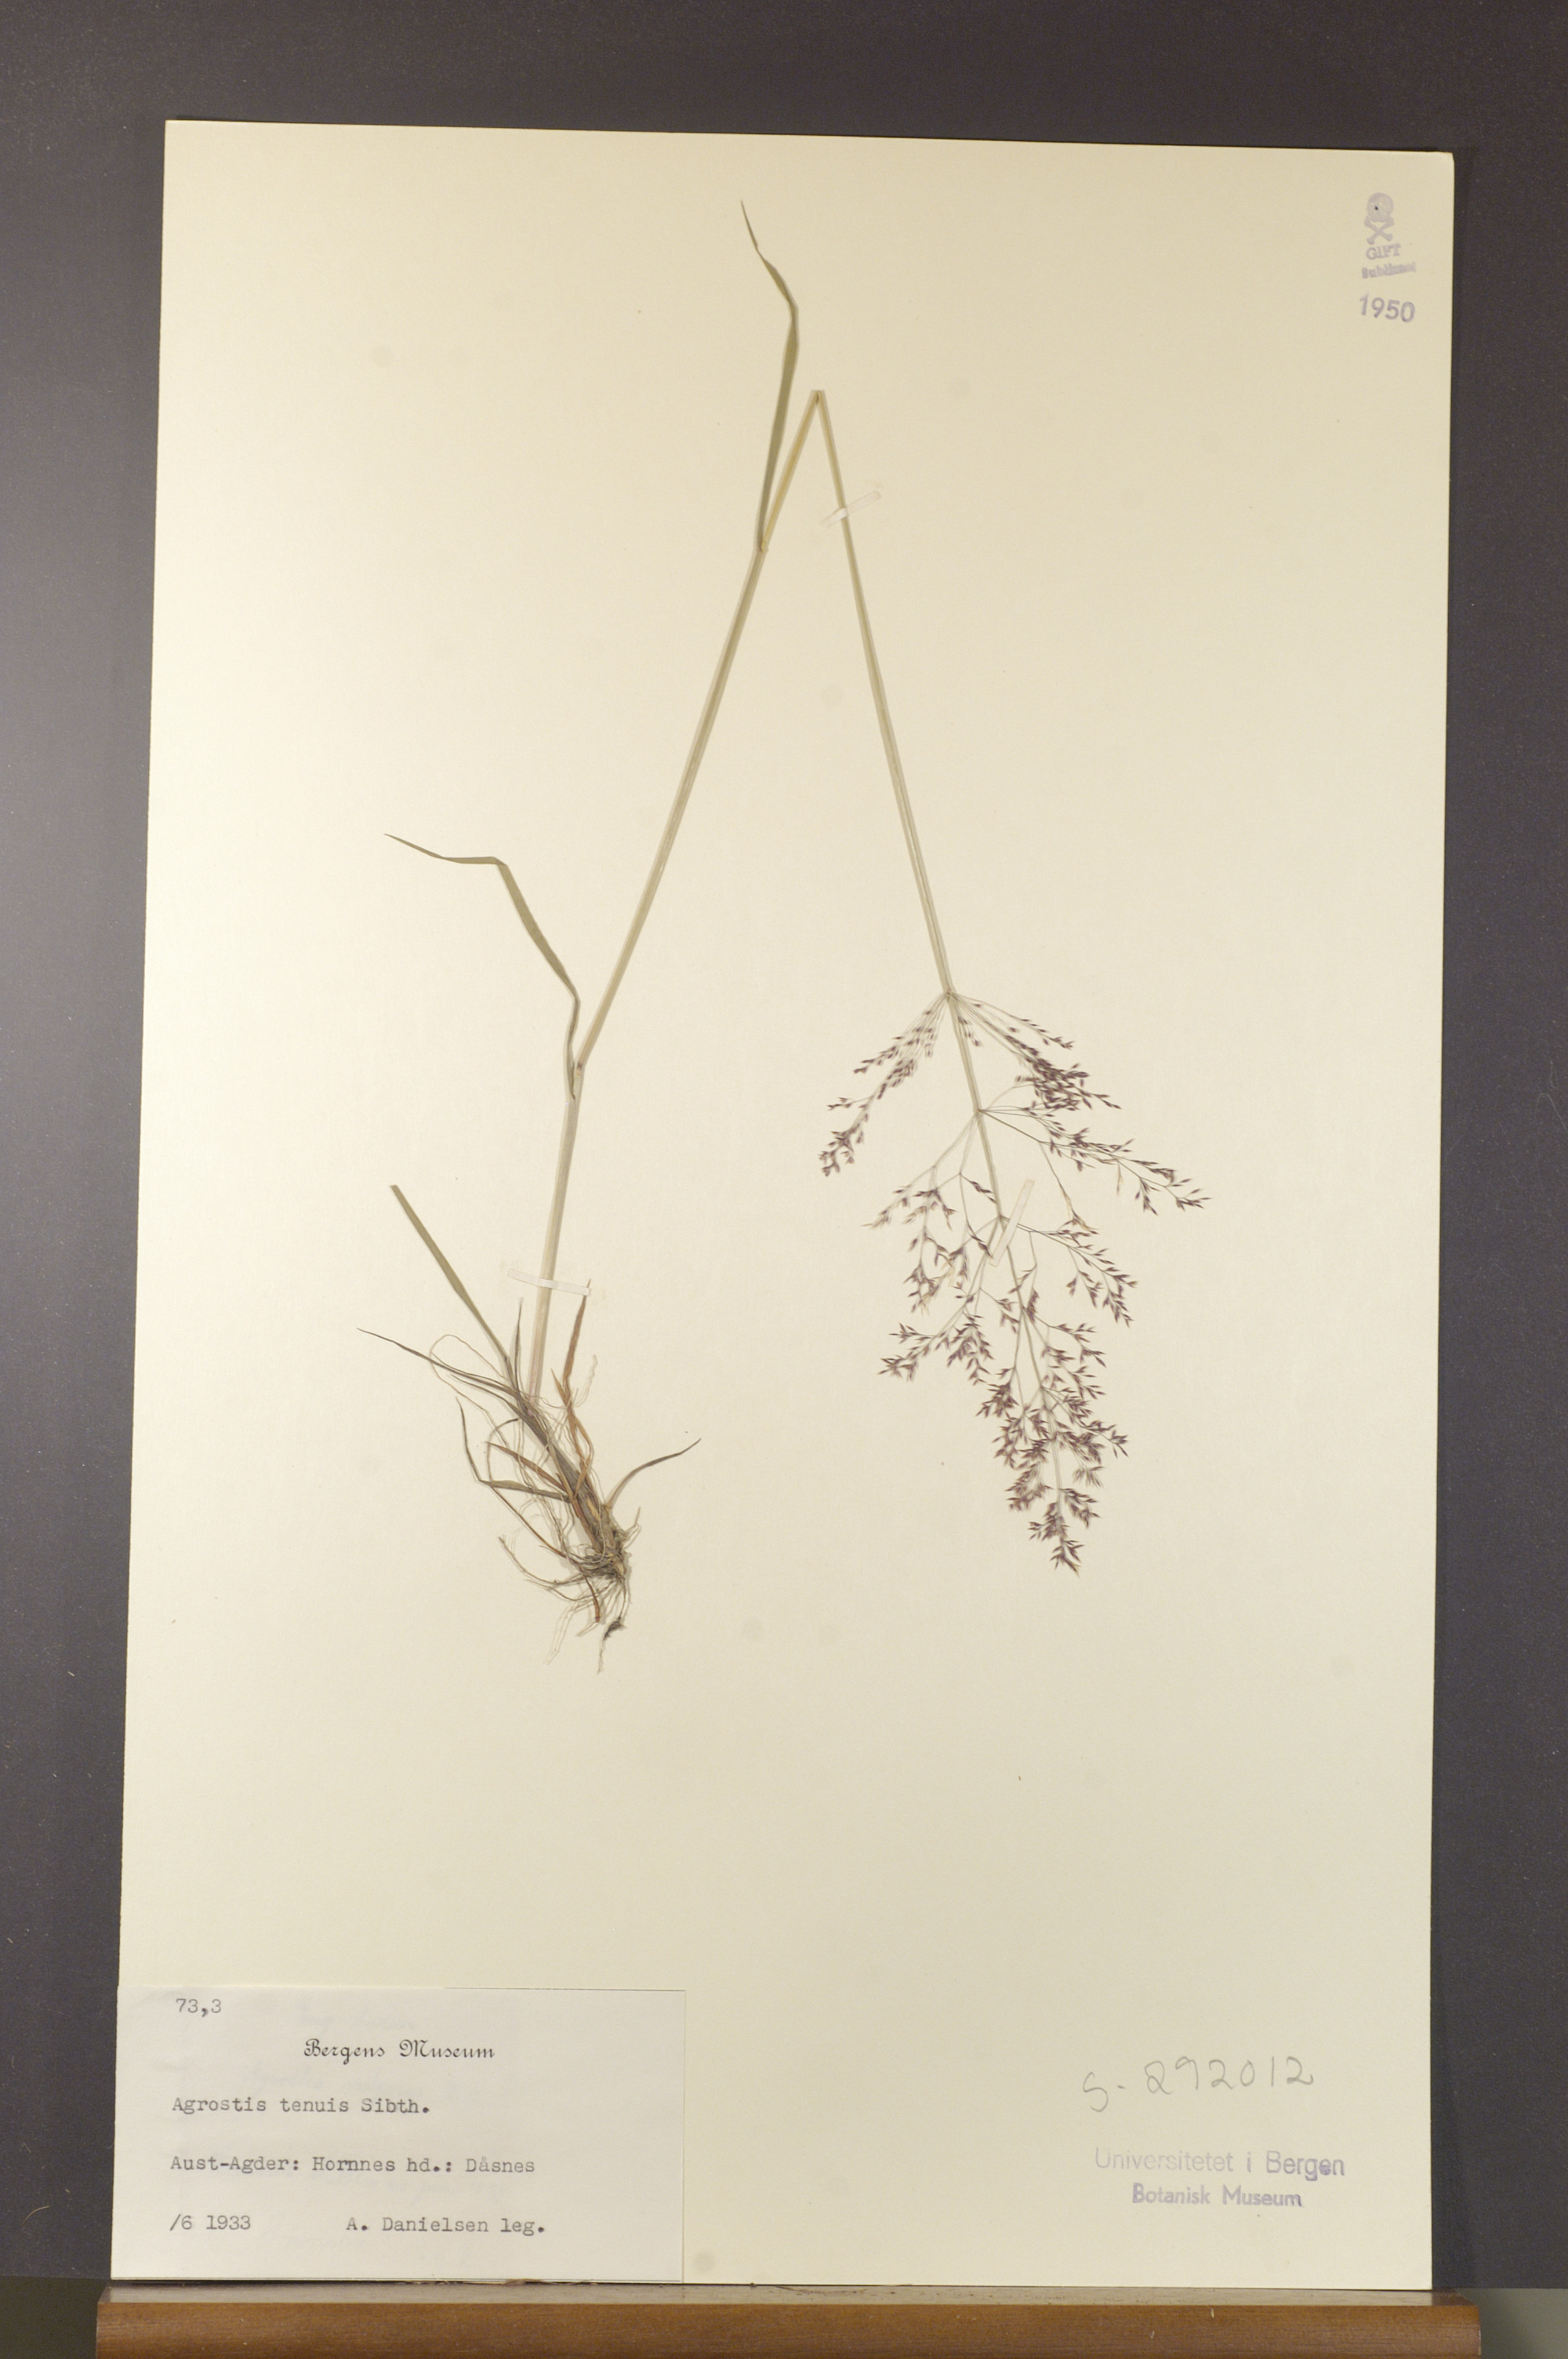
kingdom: Plantae
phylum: Tracheophyta
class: Liliopsida
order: Poales
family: Poaceae
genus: Agrostis
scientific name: Agrostis capillaris
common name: Colonial bentgrass
